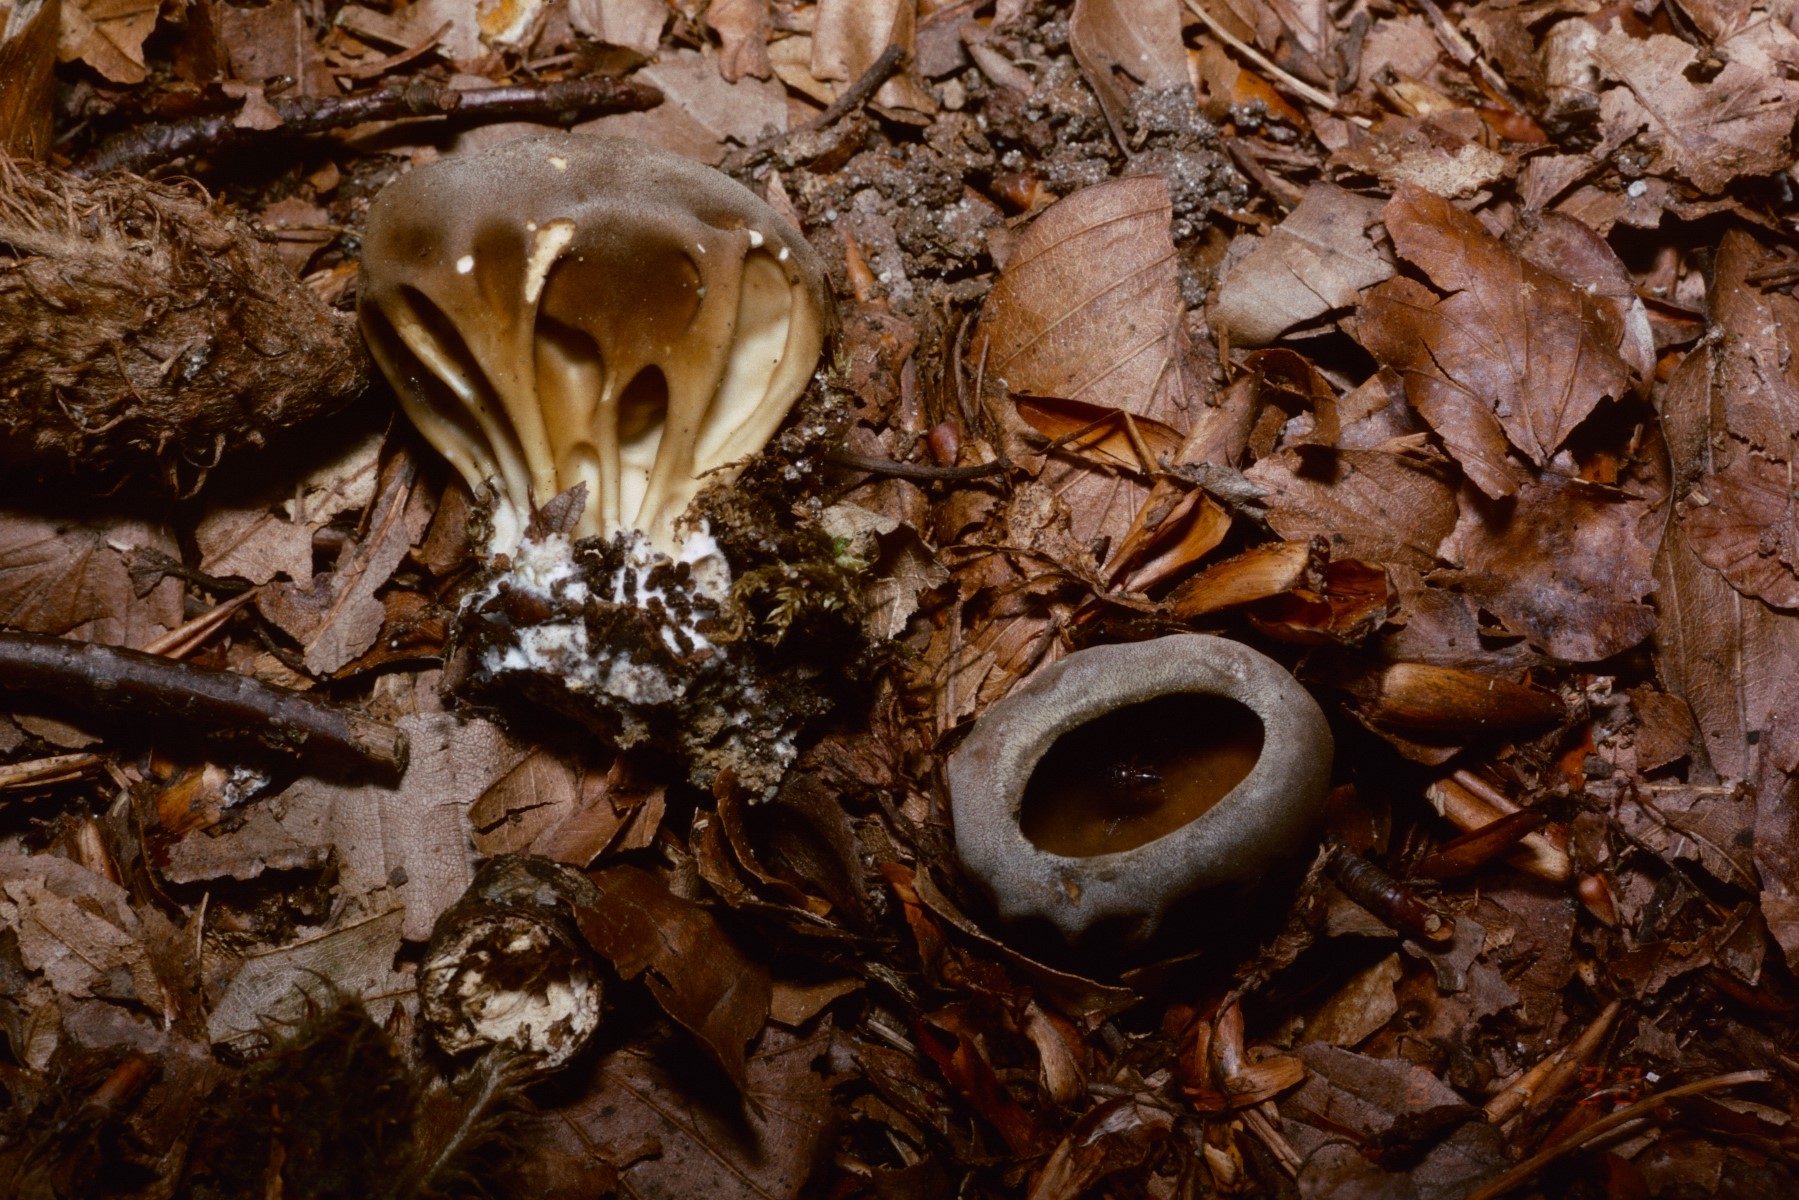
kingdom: Fungi
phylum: Ascomycota
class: Pezizomycetes
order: Pezizales
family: Helvellaceae
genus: Helvella
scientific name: Helvella acetabulum
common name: pokal-foldhat
